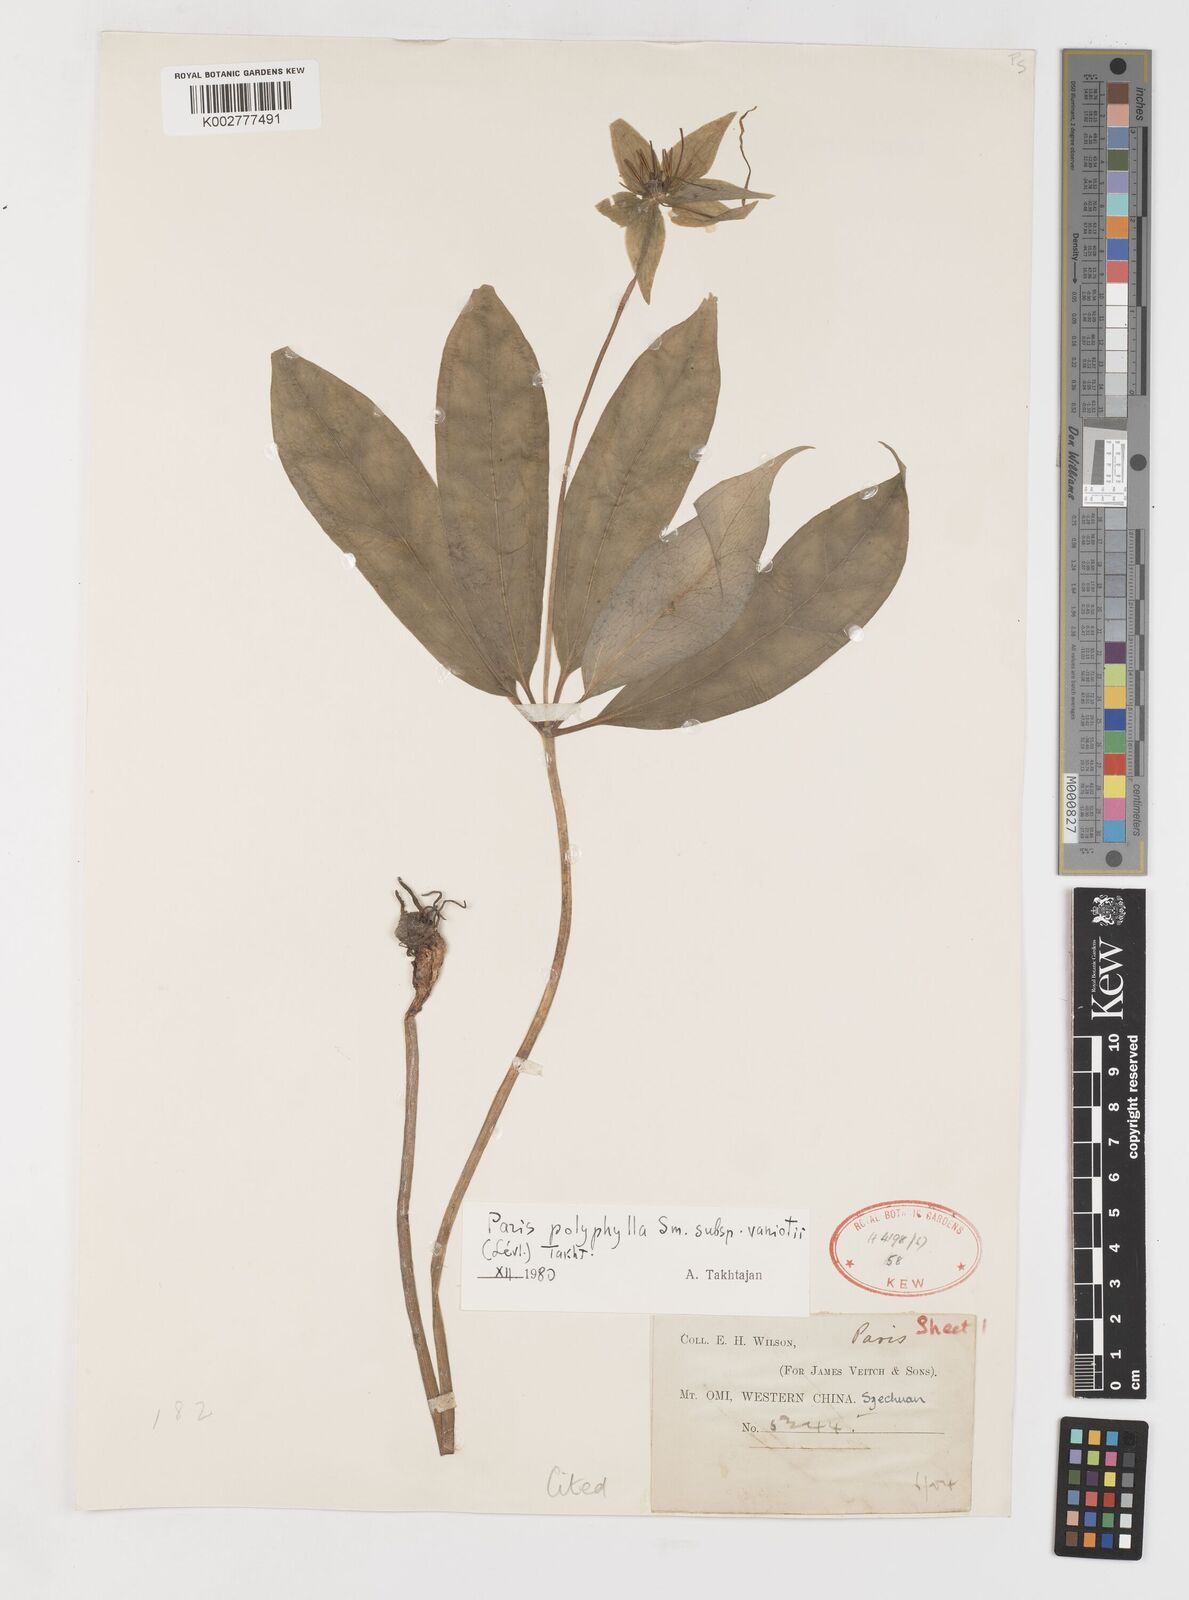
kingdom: Plantae
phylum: Tracheophyta
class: Liliopsida
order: Liliales
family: Melanthiaceae
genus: Paris
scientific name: Paris delavayi
